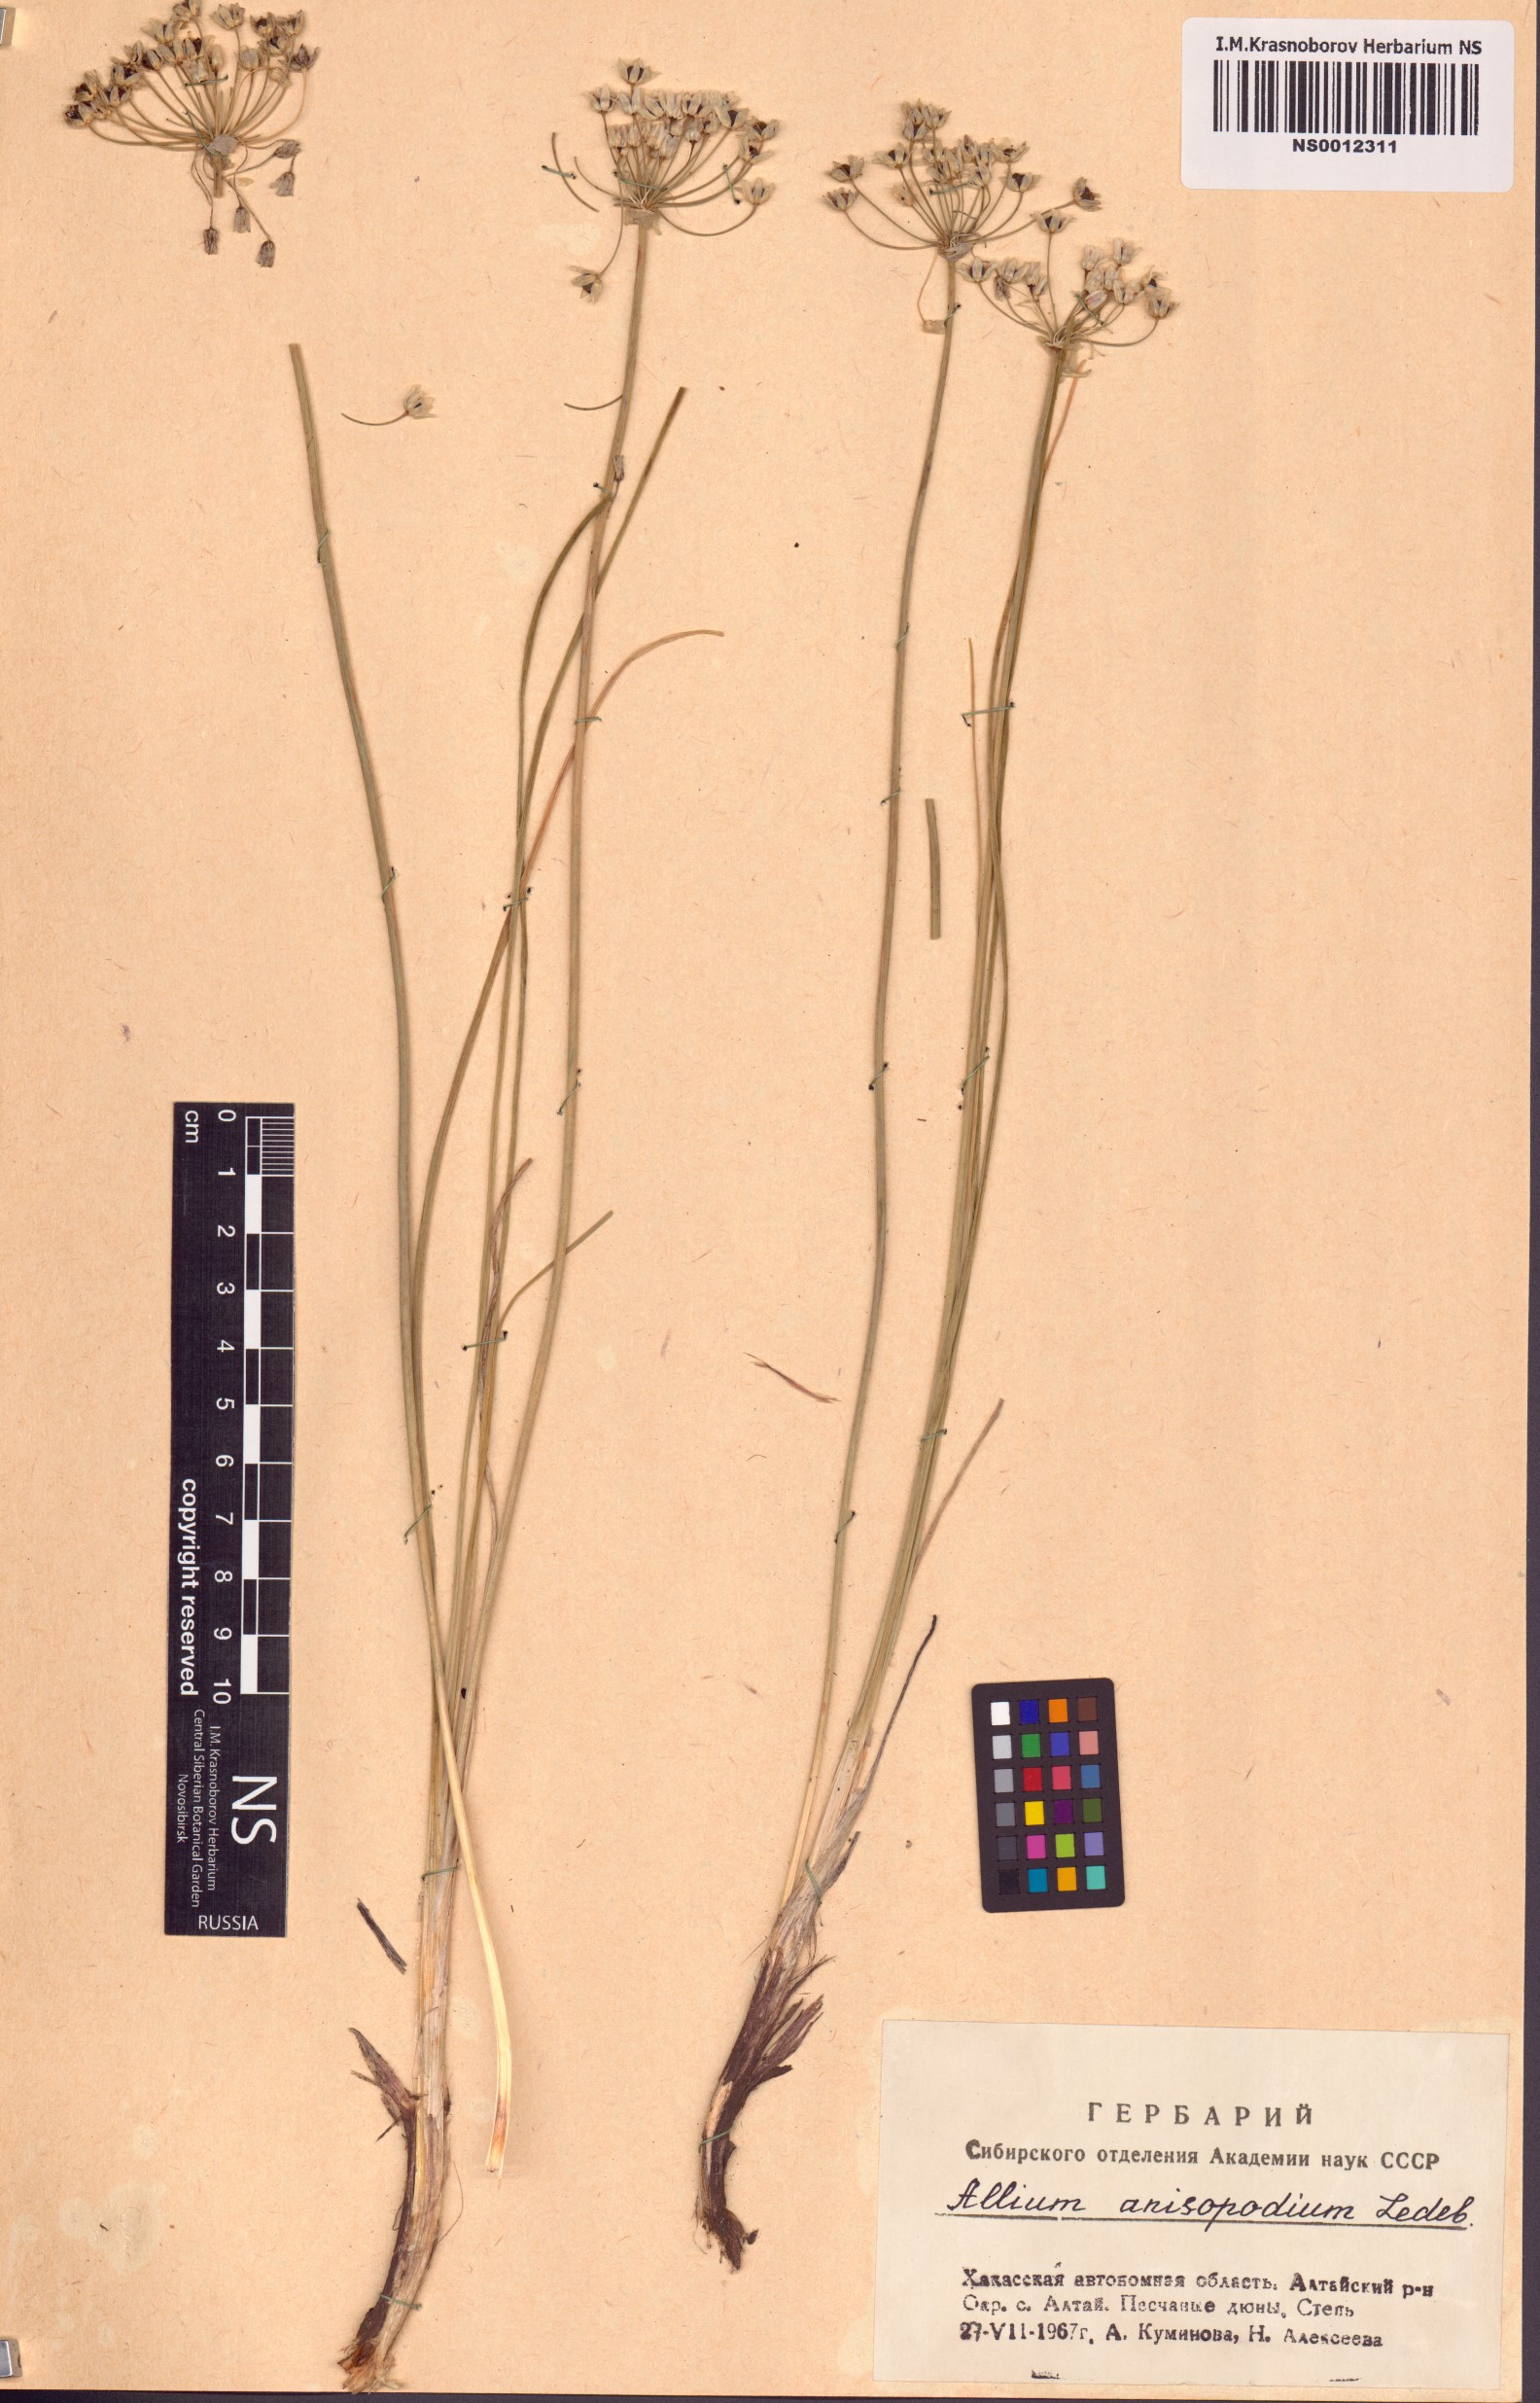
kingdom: Plantae
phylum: Tracheophyta
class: Liliopsida
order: Asparagales
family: Amaryllidaceae
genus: Allium
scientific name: Allium anisopodium
